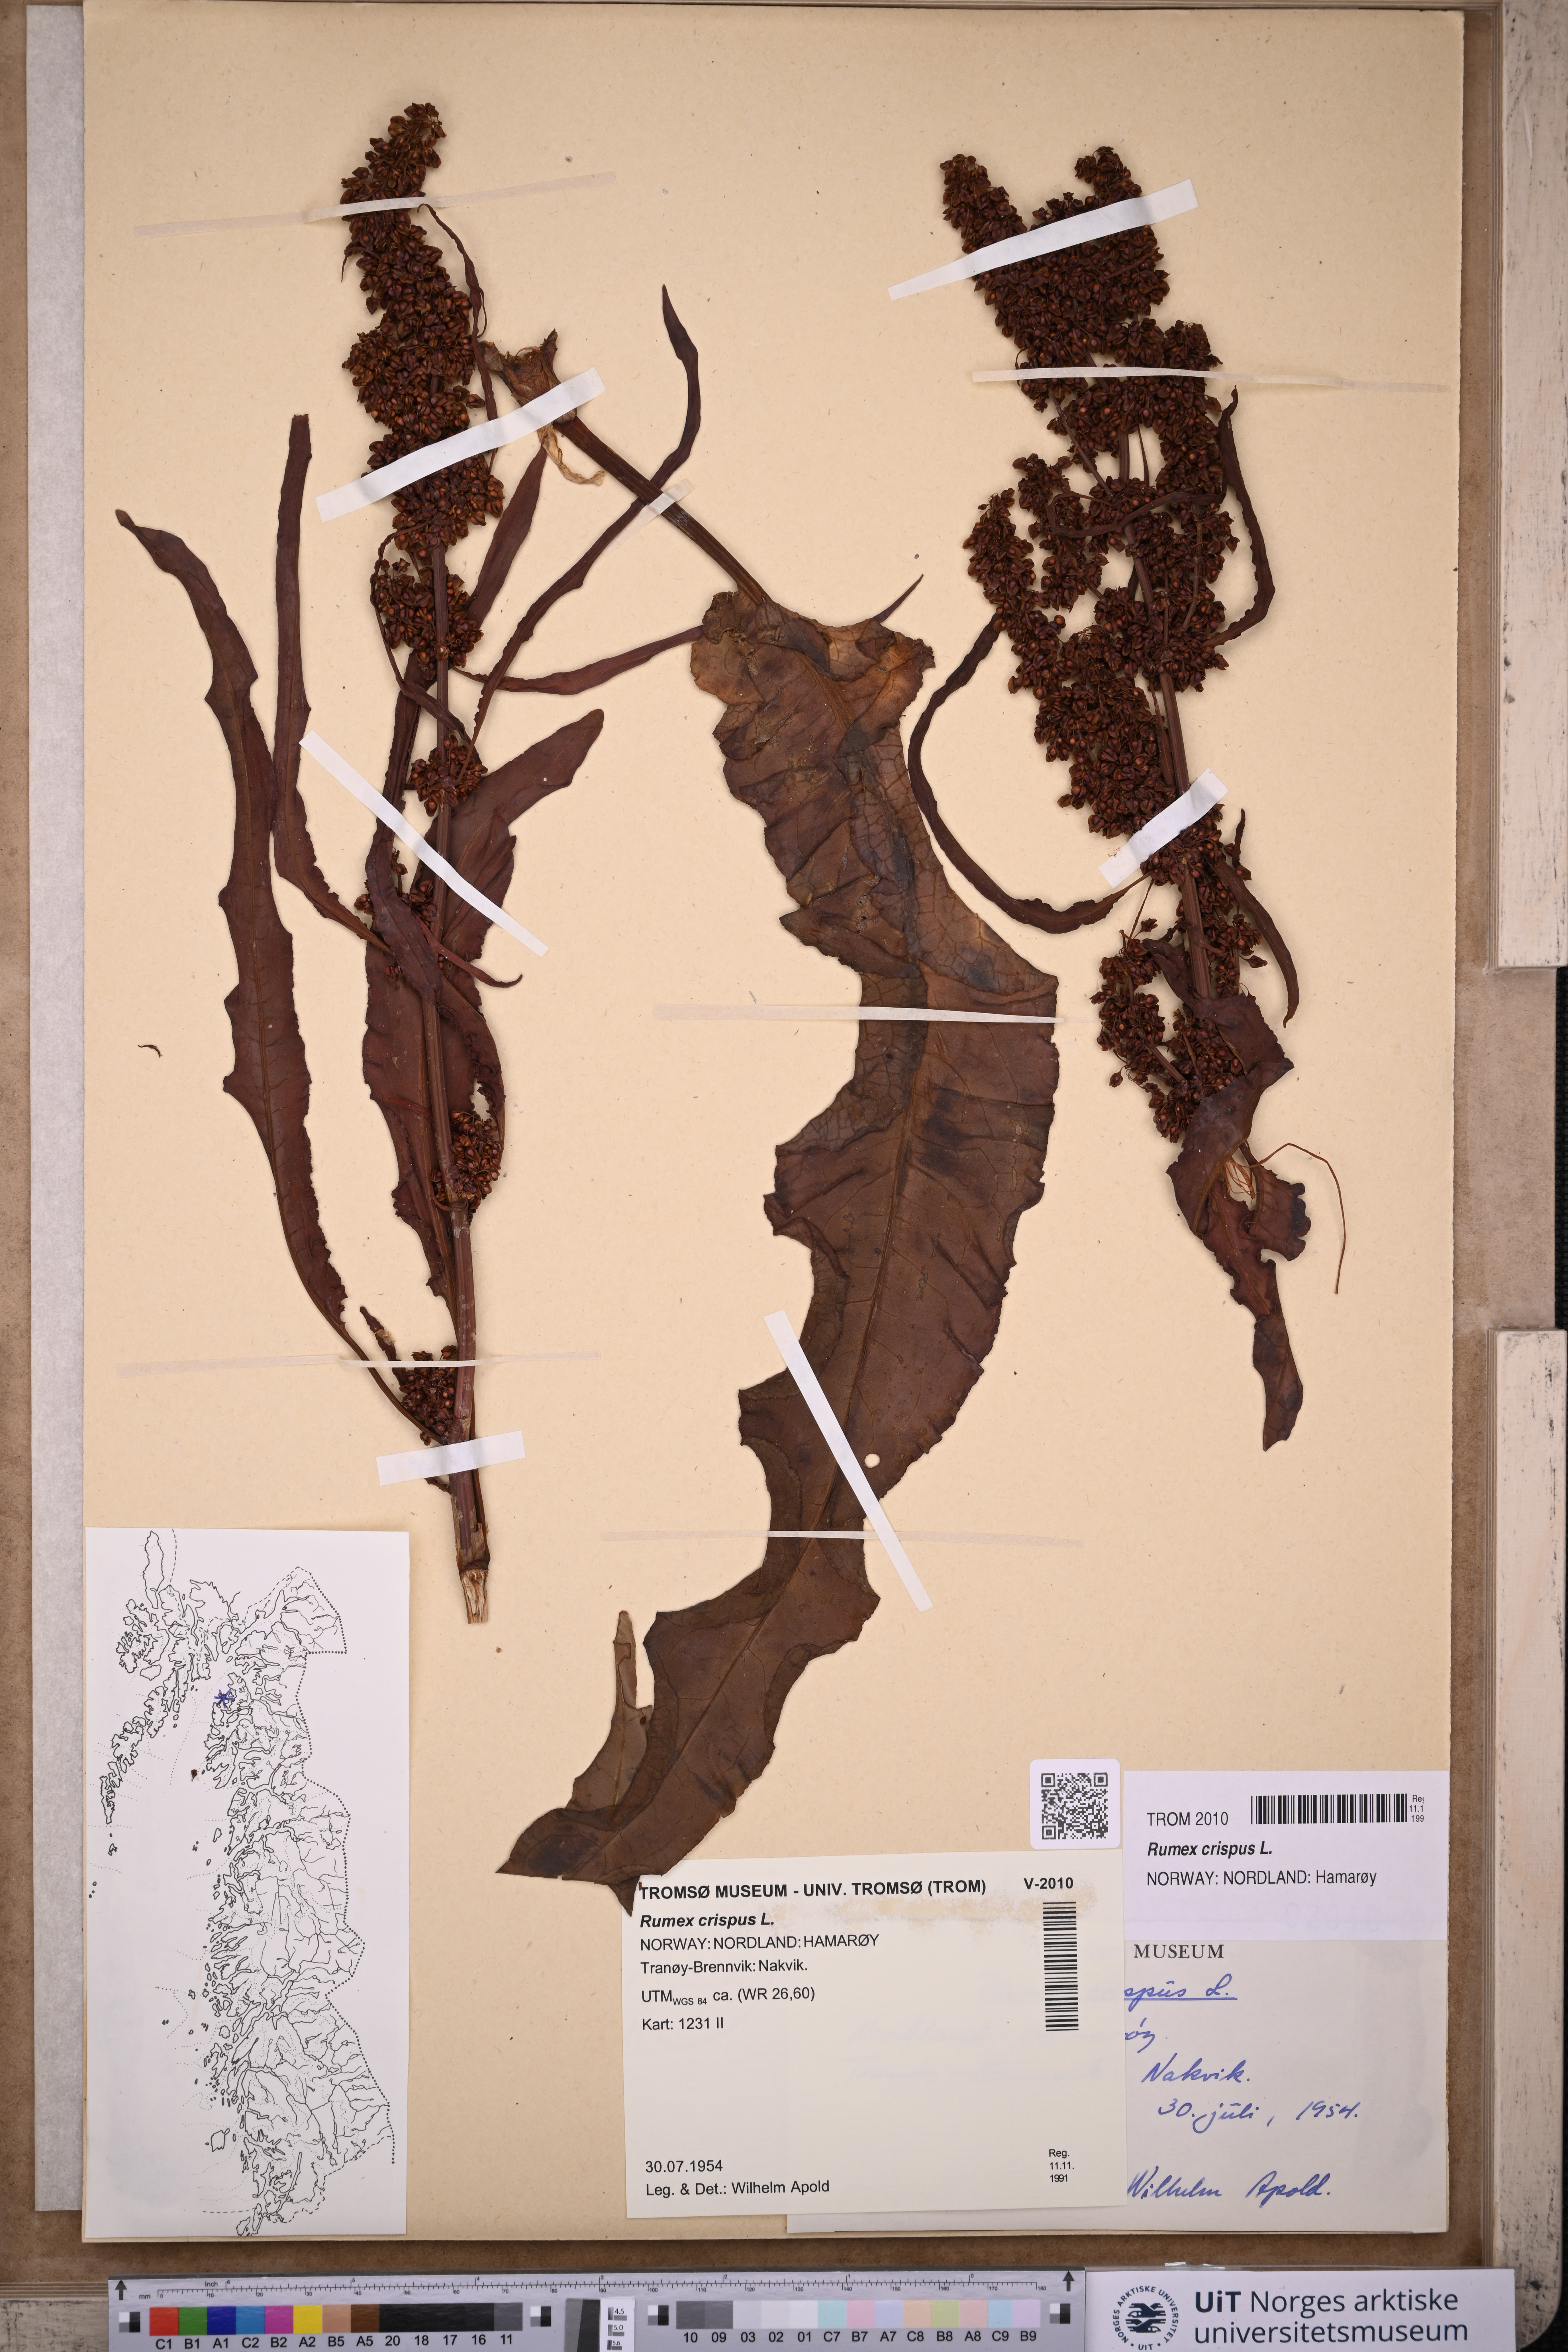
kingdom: Plantae
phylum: Tracheophyta
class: Magnoliopsida
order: Caryophyllales
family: Polygonaceae
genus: Rumex
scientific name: Rumex crispus
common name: Curled dock
